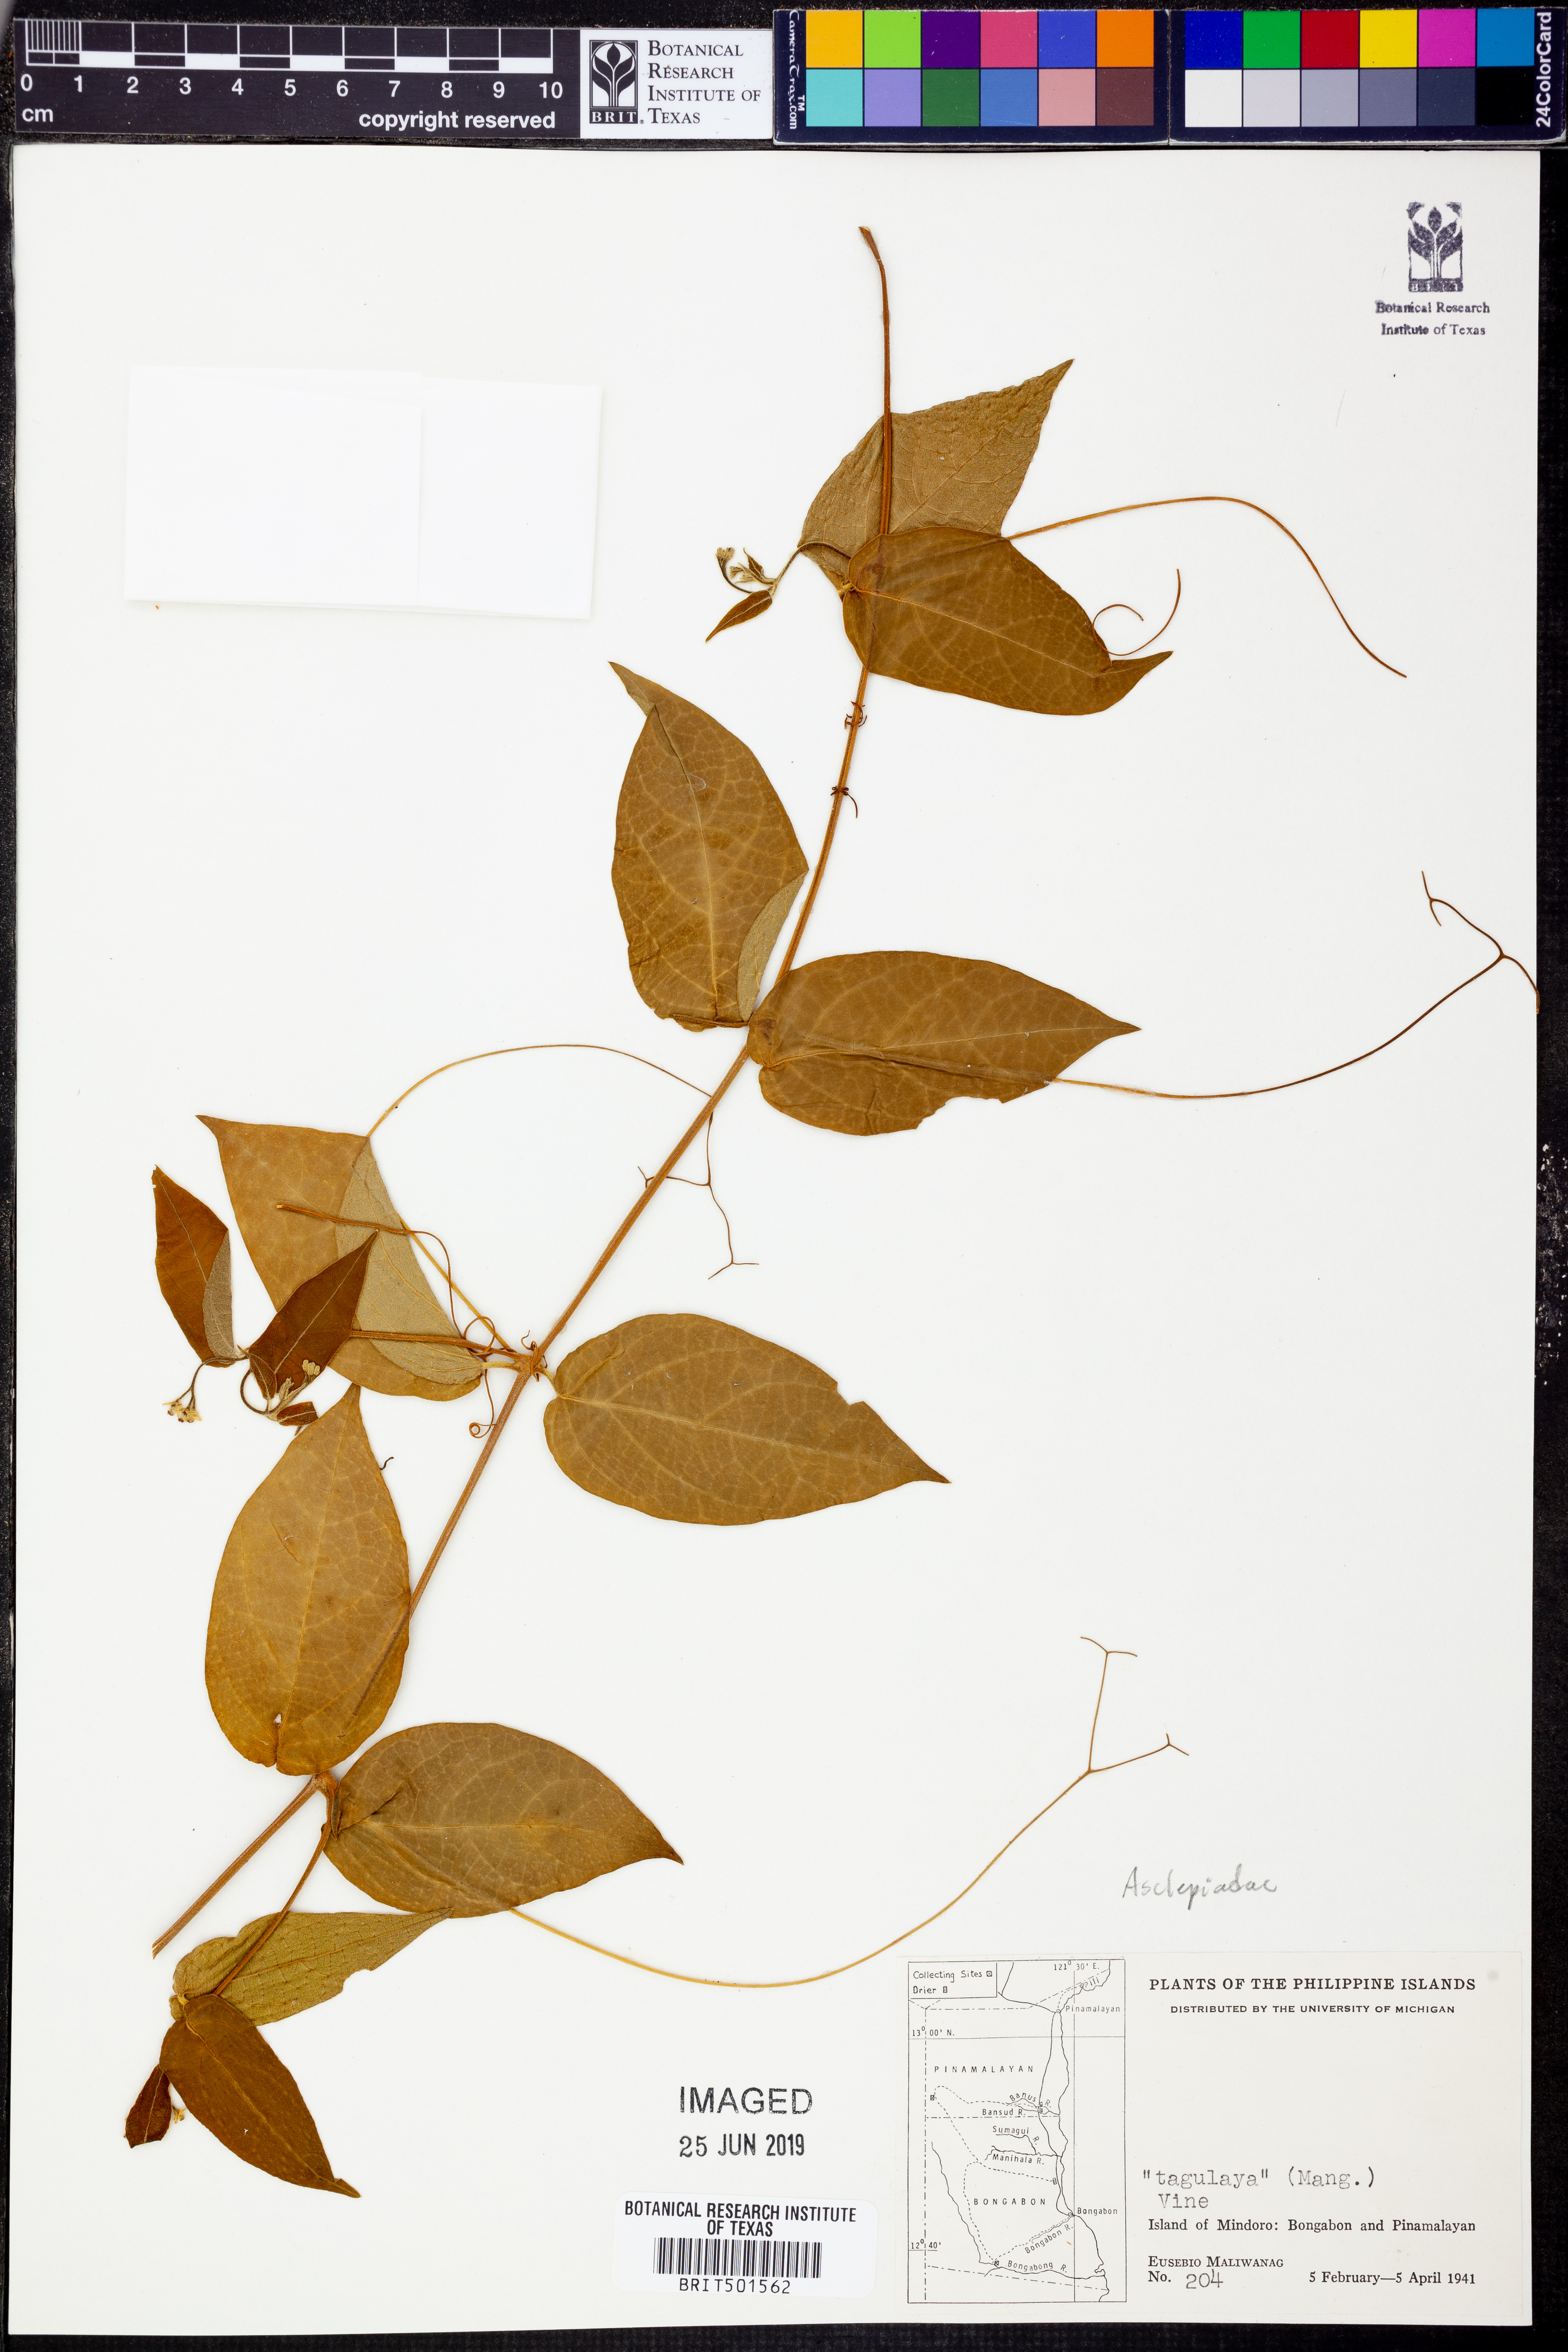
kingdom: Plantae
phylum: Tracheophyta
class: Magnoliopsida
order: Gentianales
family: Apocynaceae
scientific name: Apocynaceae
